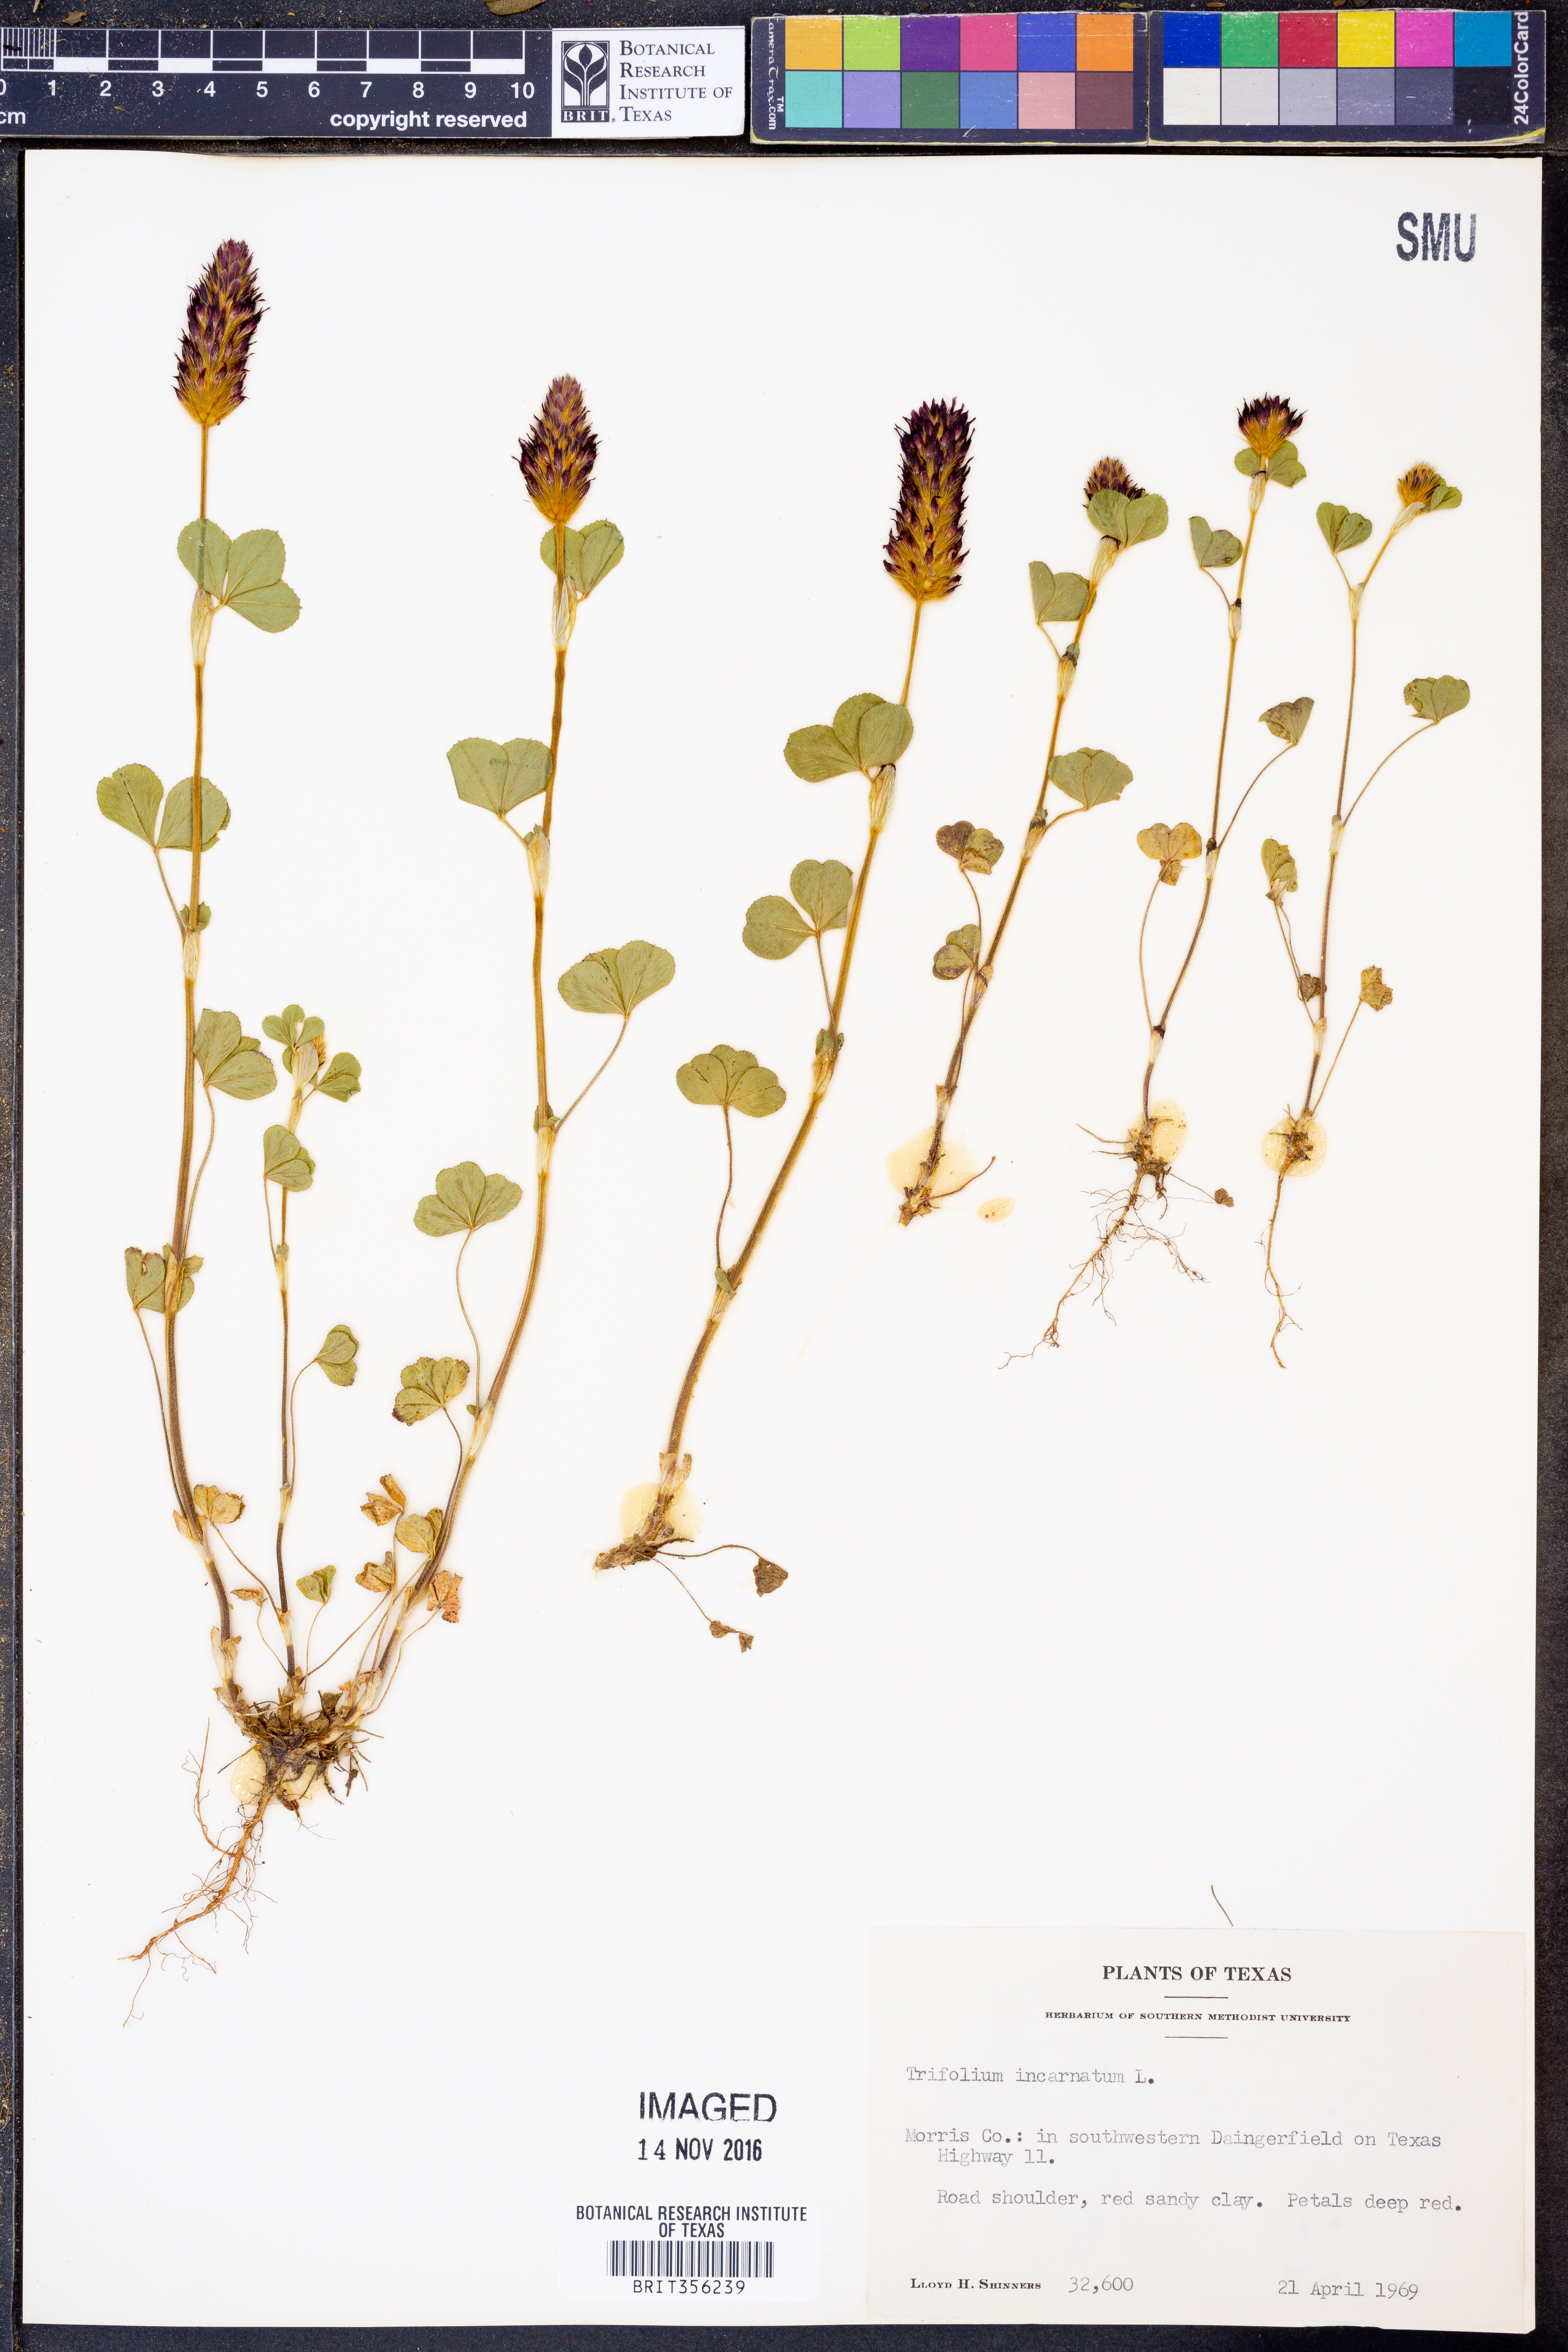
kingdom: Plantae
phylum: Tracheophyta
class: Magnoliopsida
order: Fabales
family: Fabaceae
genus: Trifolium
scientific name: Trifolium incarnatum
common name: Crimson clover
